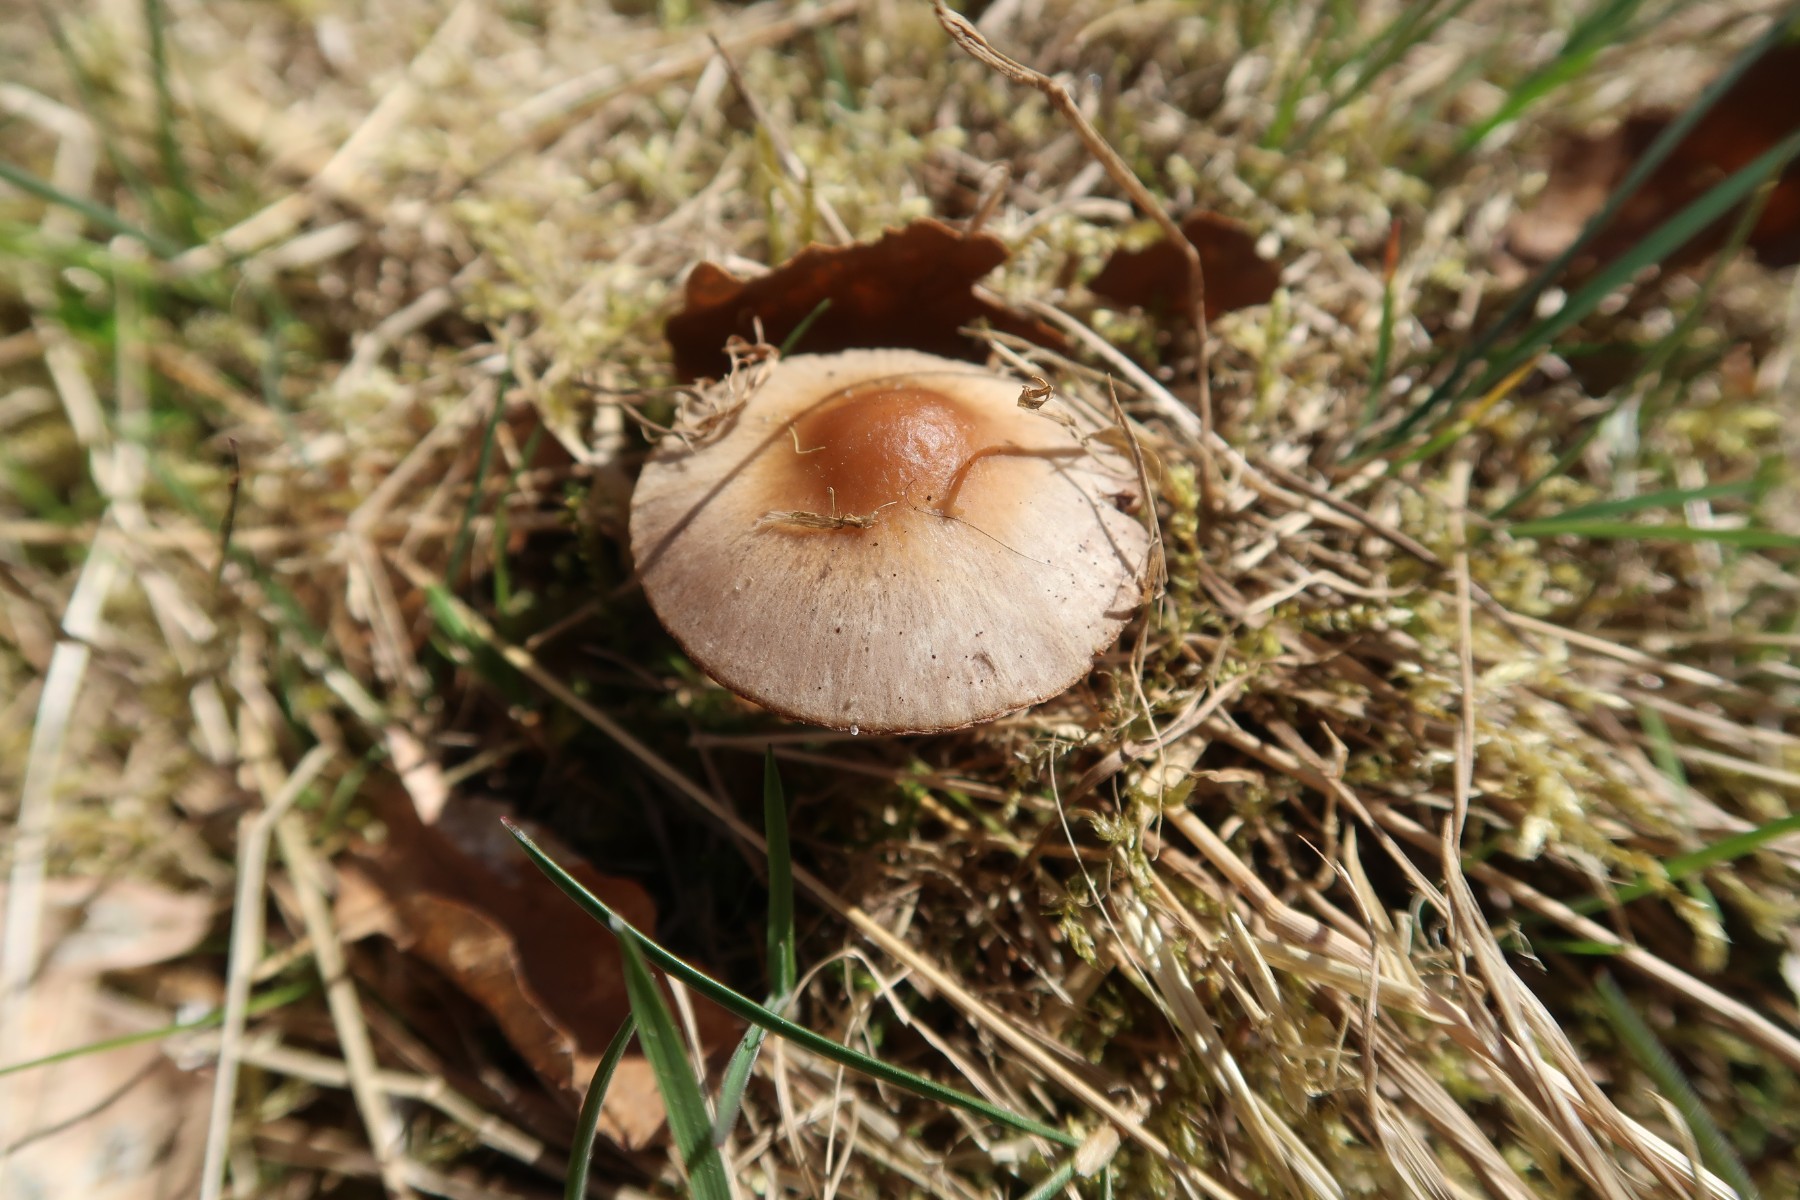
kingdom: Fungi
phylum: Basidiomycota
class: Agaricomycetes
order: Agaricales
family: Psathyrellaceae
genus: Psathyrella
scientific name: Psathyrella spadiceogrisea
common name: gråbrun mørkhat
